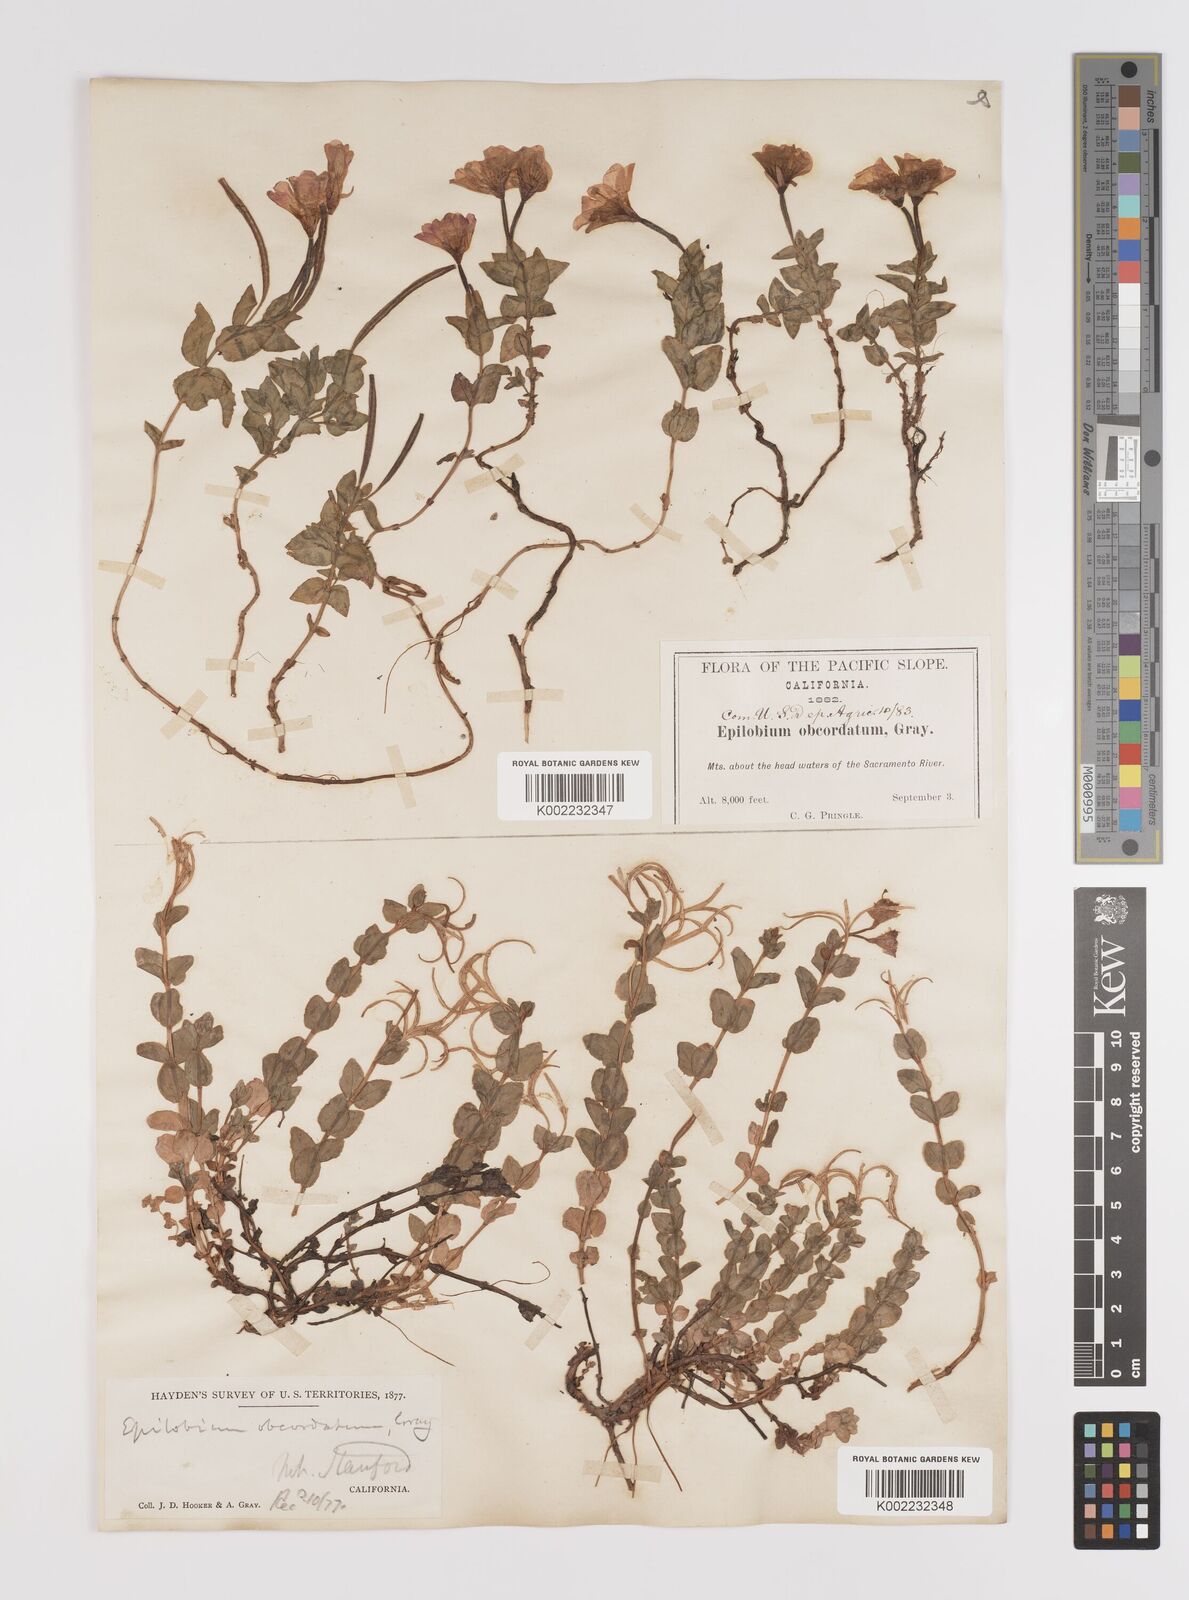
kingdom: Plantae
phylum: Tracheophyta
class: Magnoliopsida
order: Myrtales
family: Onagraceae
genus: Epilobium
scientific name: Epilobium obcordatum
